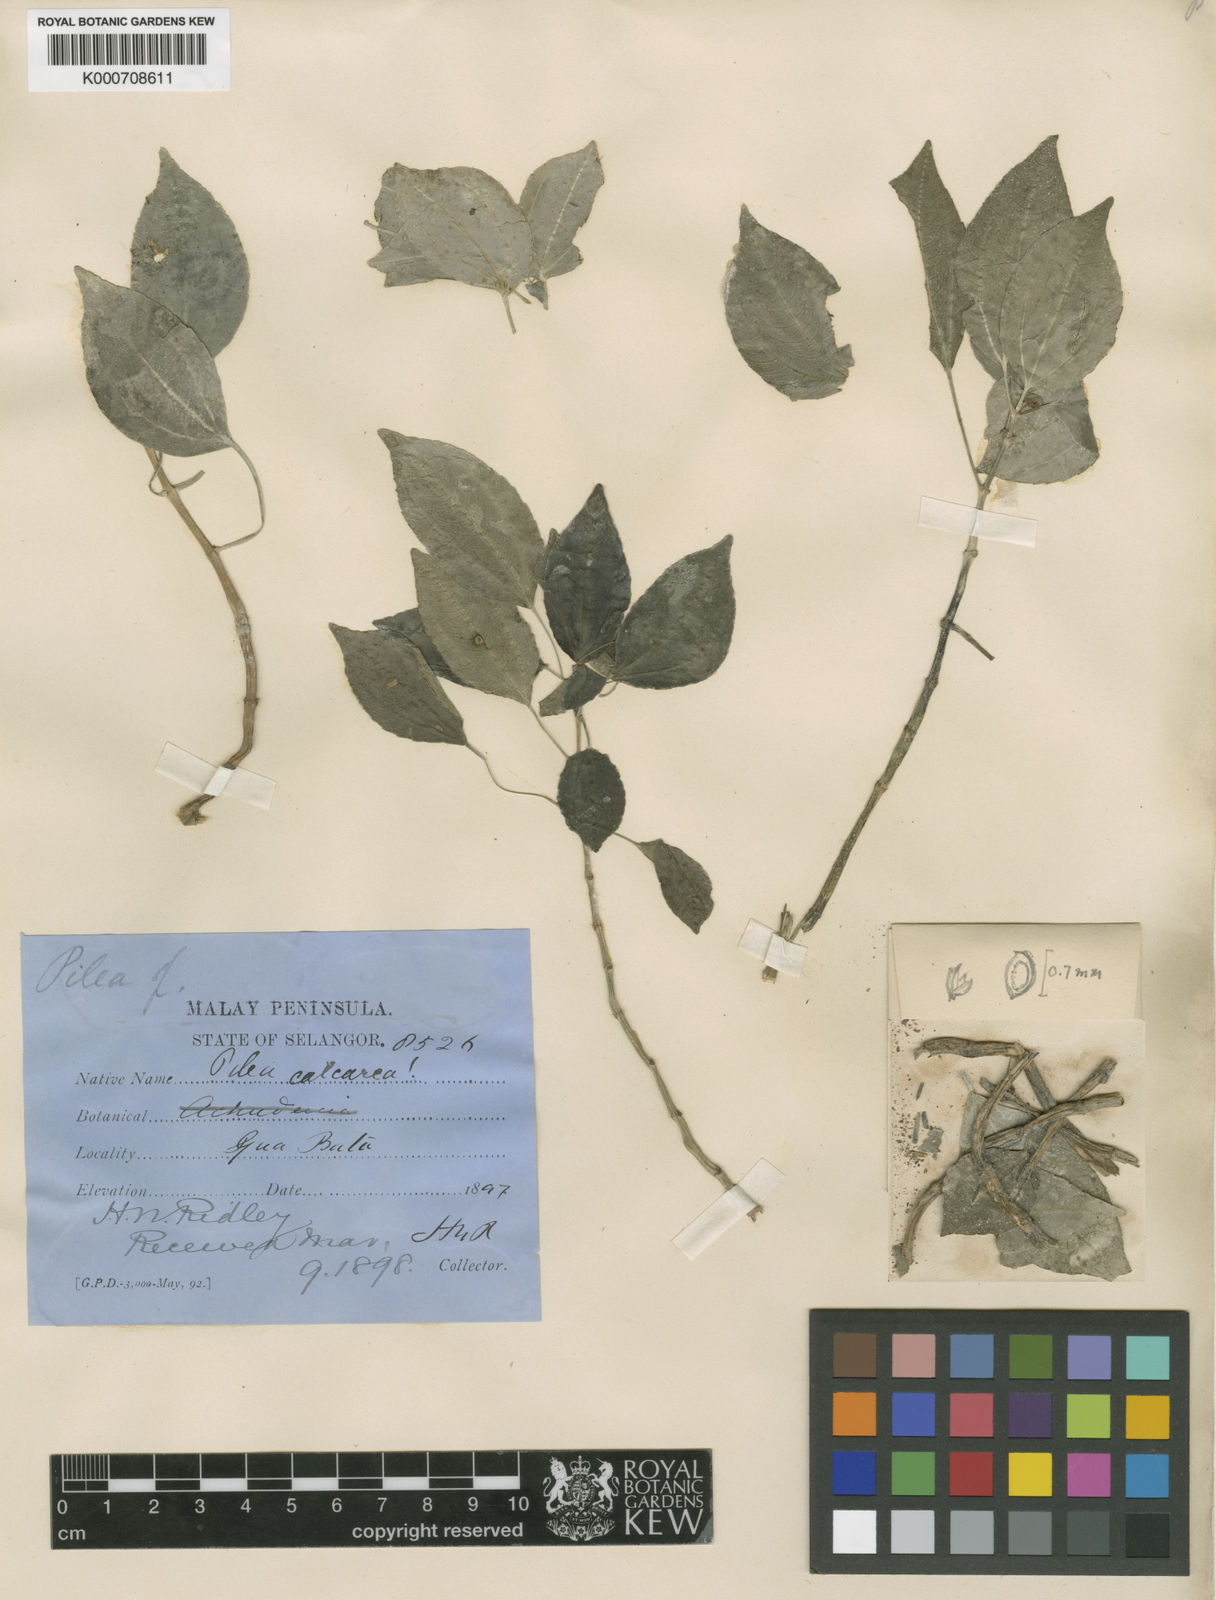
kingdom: Plantae
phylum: Tracheophyta
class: Magnoliopsida
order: Rosales
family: Urticaceae
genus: Pilea
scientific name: Pilea fruticosa
